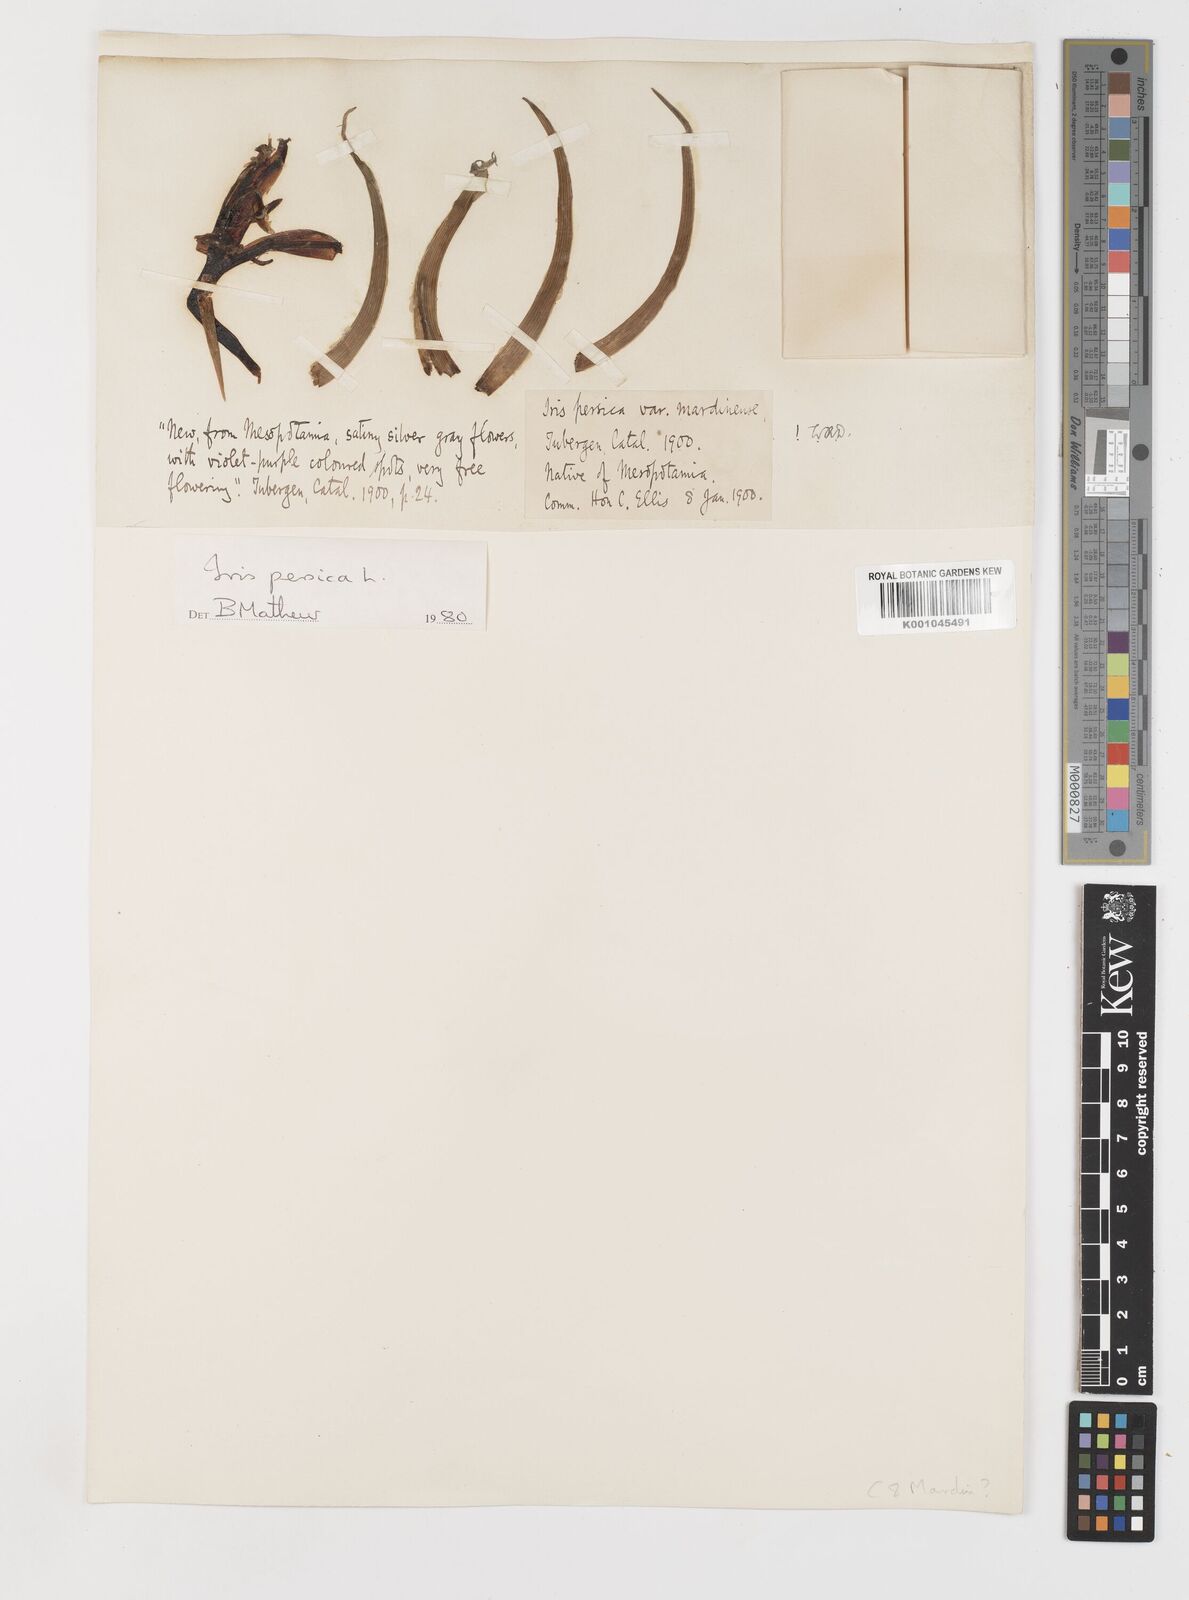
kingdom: Plantae
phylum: Tracheophyta
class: Liliopsida
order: Asparagales
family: Iridaceae
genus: Iris
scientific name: Iris persica
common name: Persian iris
